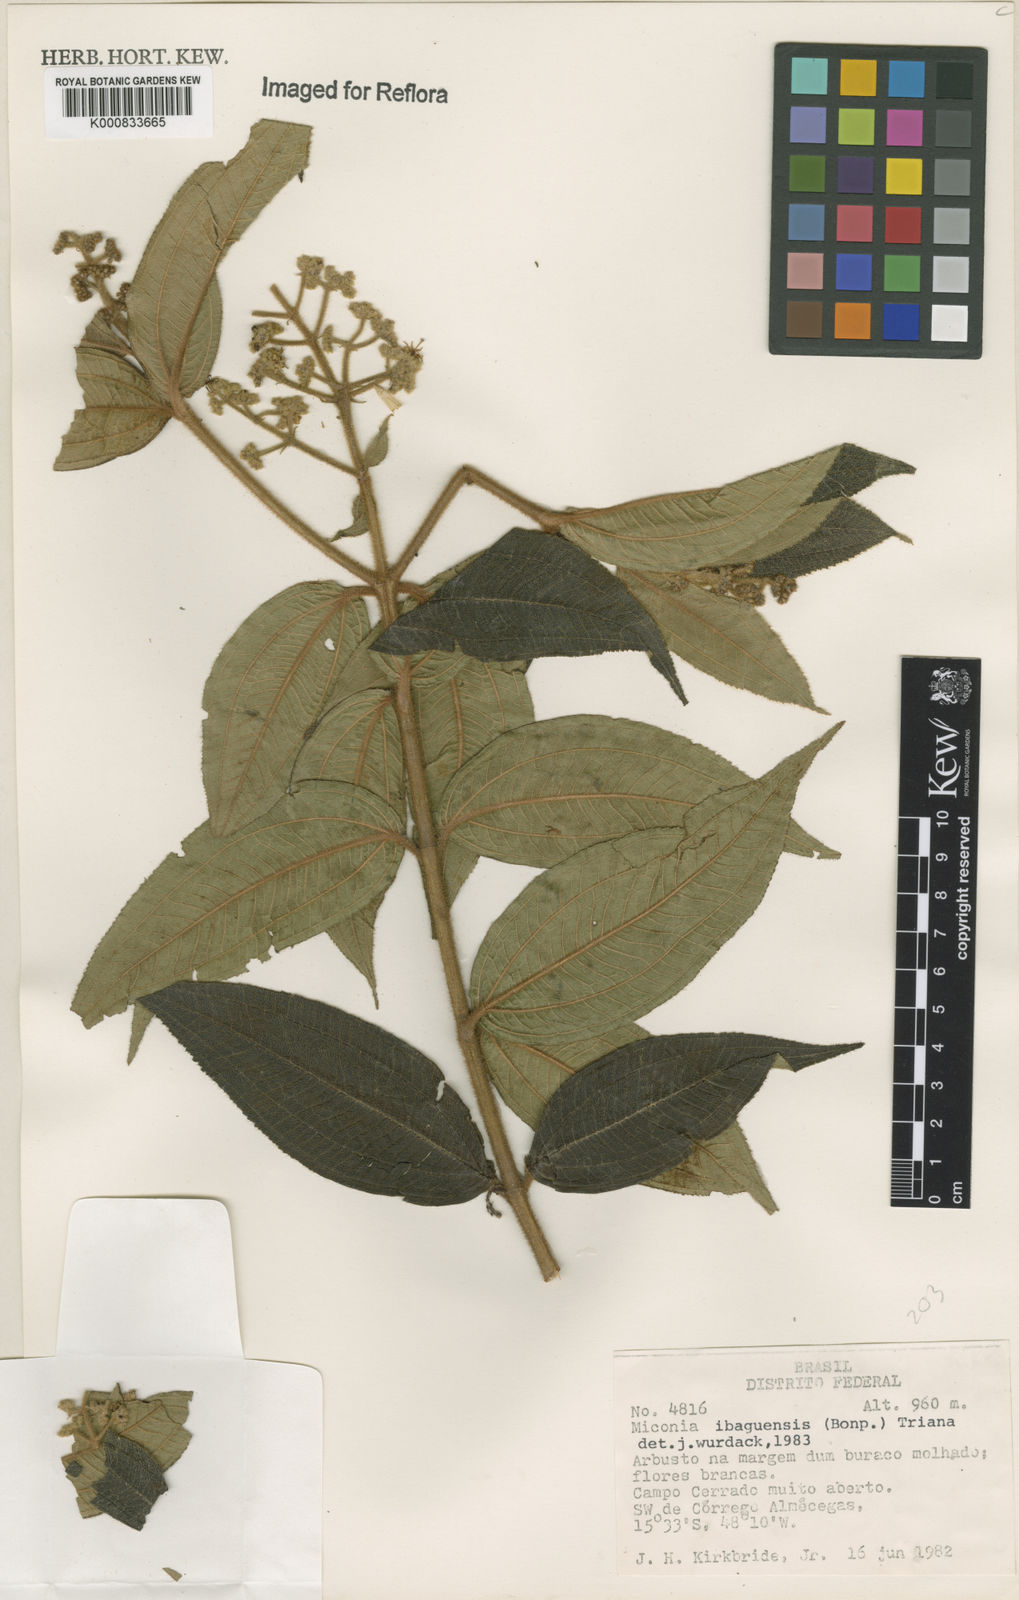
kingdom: Plantae
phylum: Tracheophyta
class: Magnoliopsida
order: Myrtales
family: Melastomataceae
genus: Miconia
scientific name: Miconia ibaguensis
